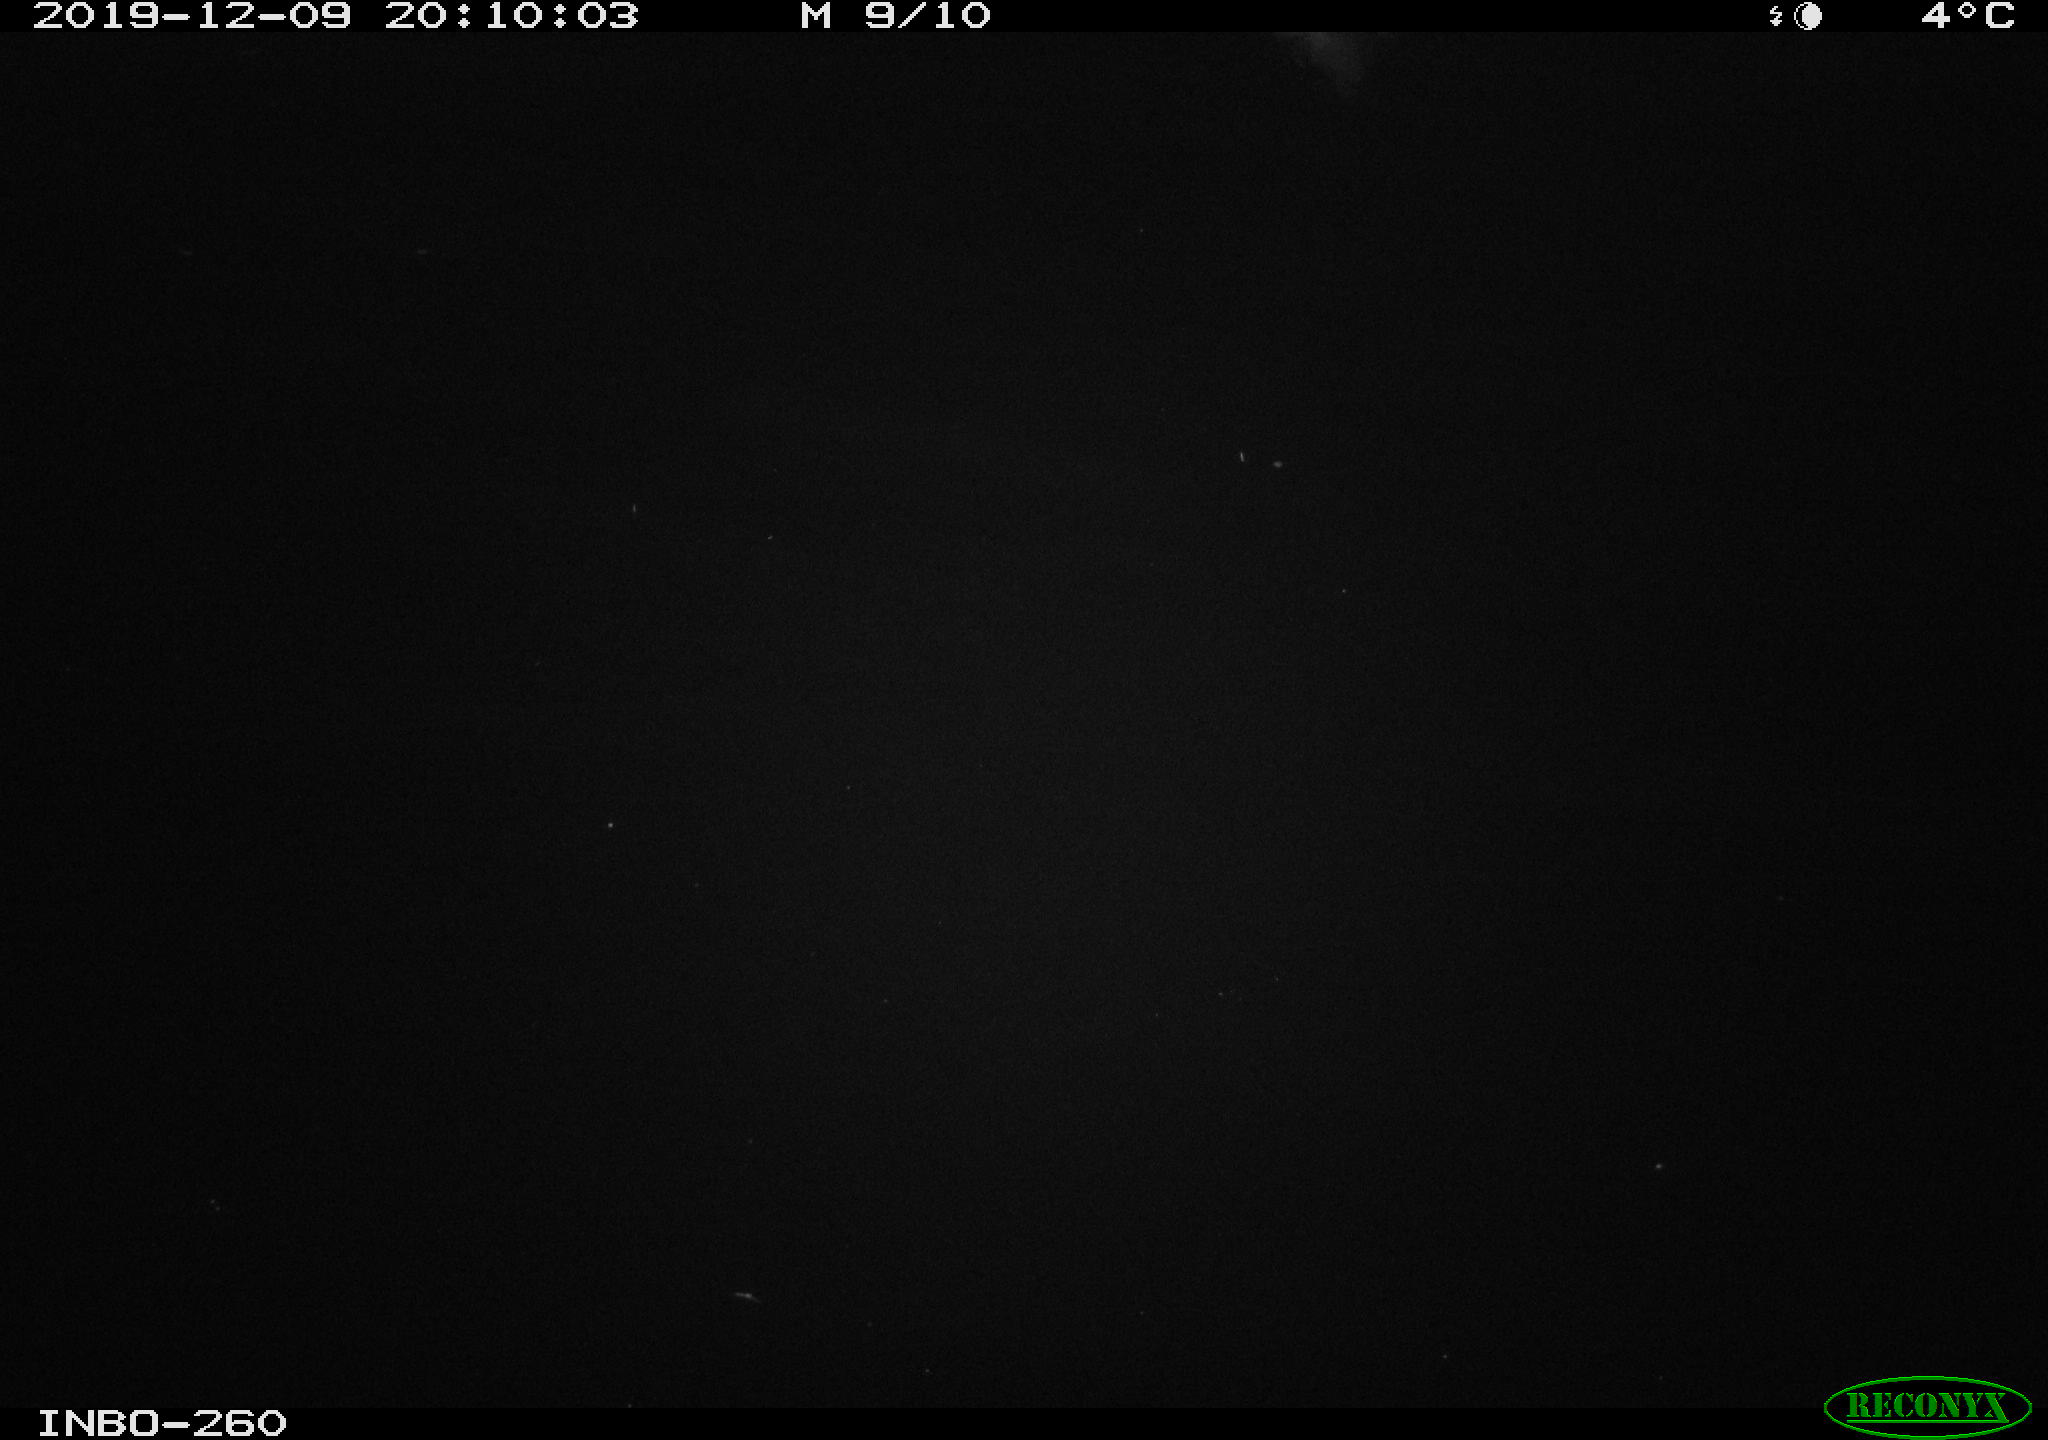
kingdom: Animalia
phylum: Chordata
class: Aves
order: Anseriformes
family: Anatidae
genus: Anas
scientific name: Anas platyrhynchos
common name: Mallard
